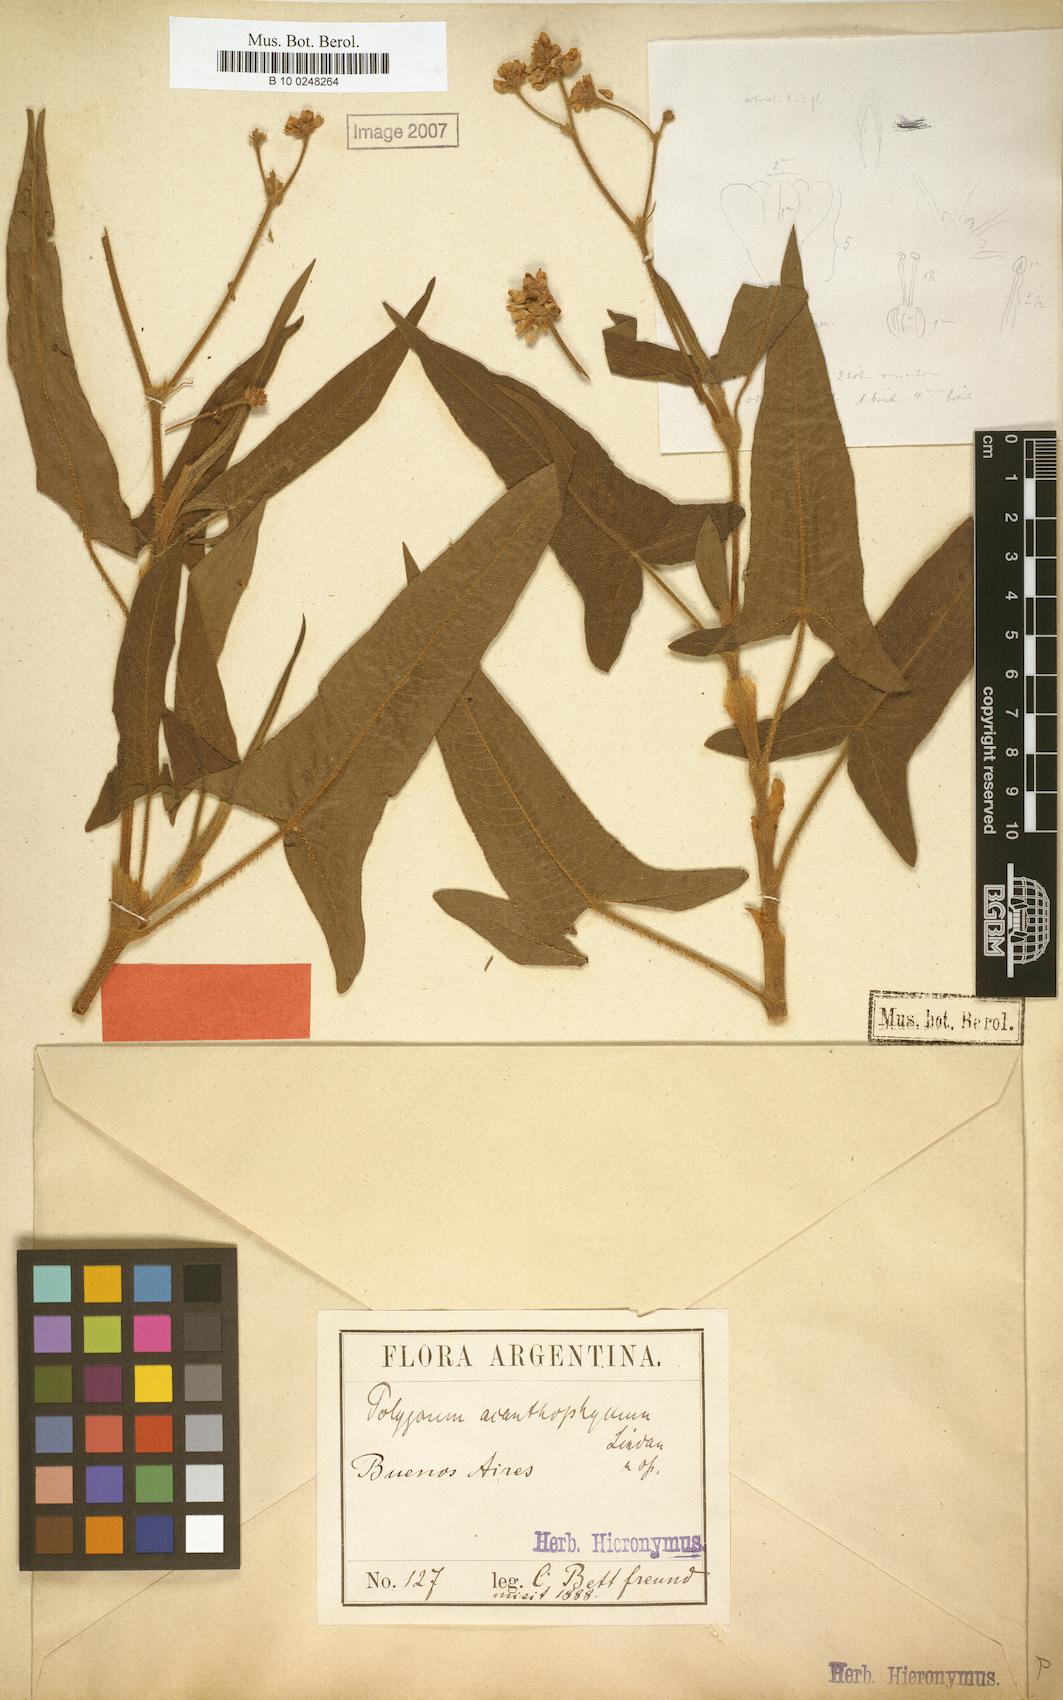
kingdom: Plantae
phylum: Tracheophyta
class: Magnoliopsida
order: Caryophyllales
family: Polygonaceae
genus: Persicaria
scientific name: Persicaria stelligera
